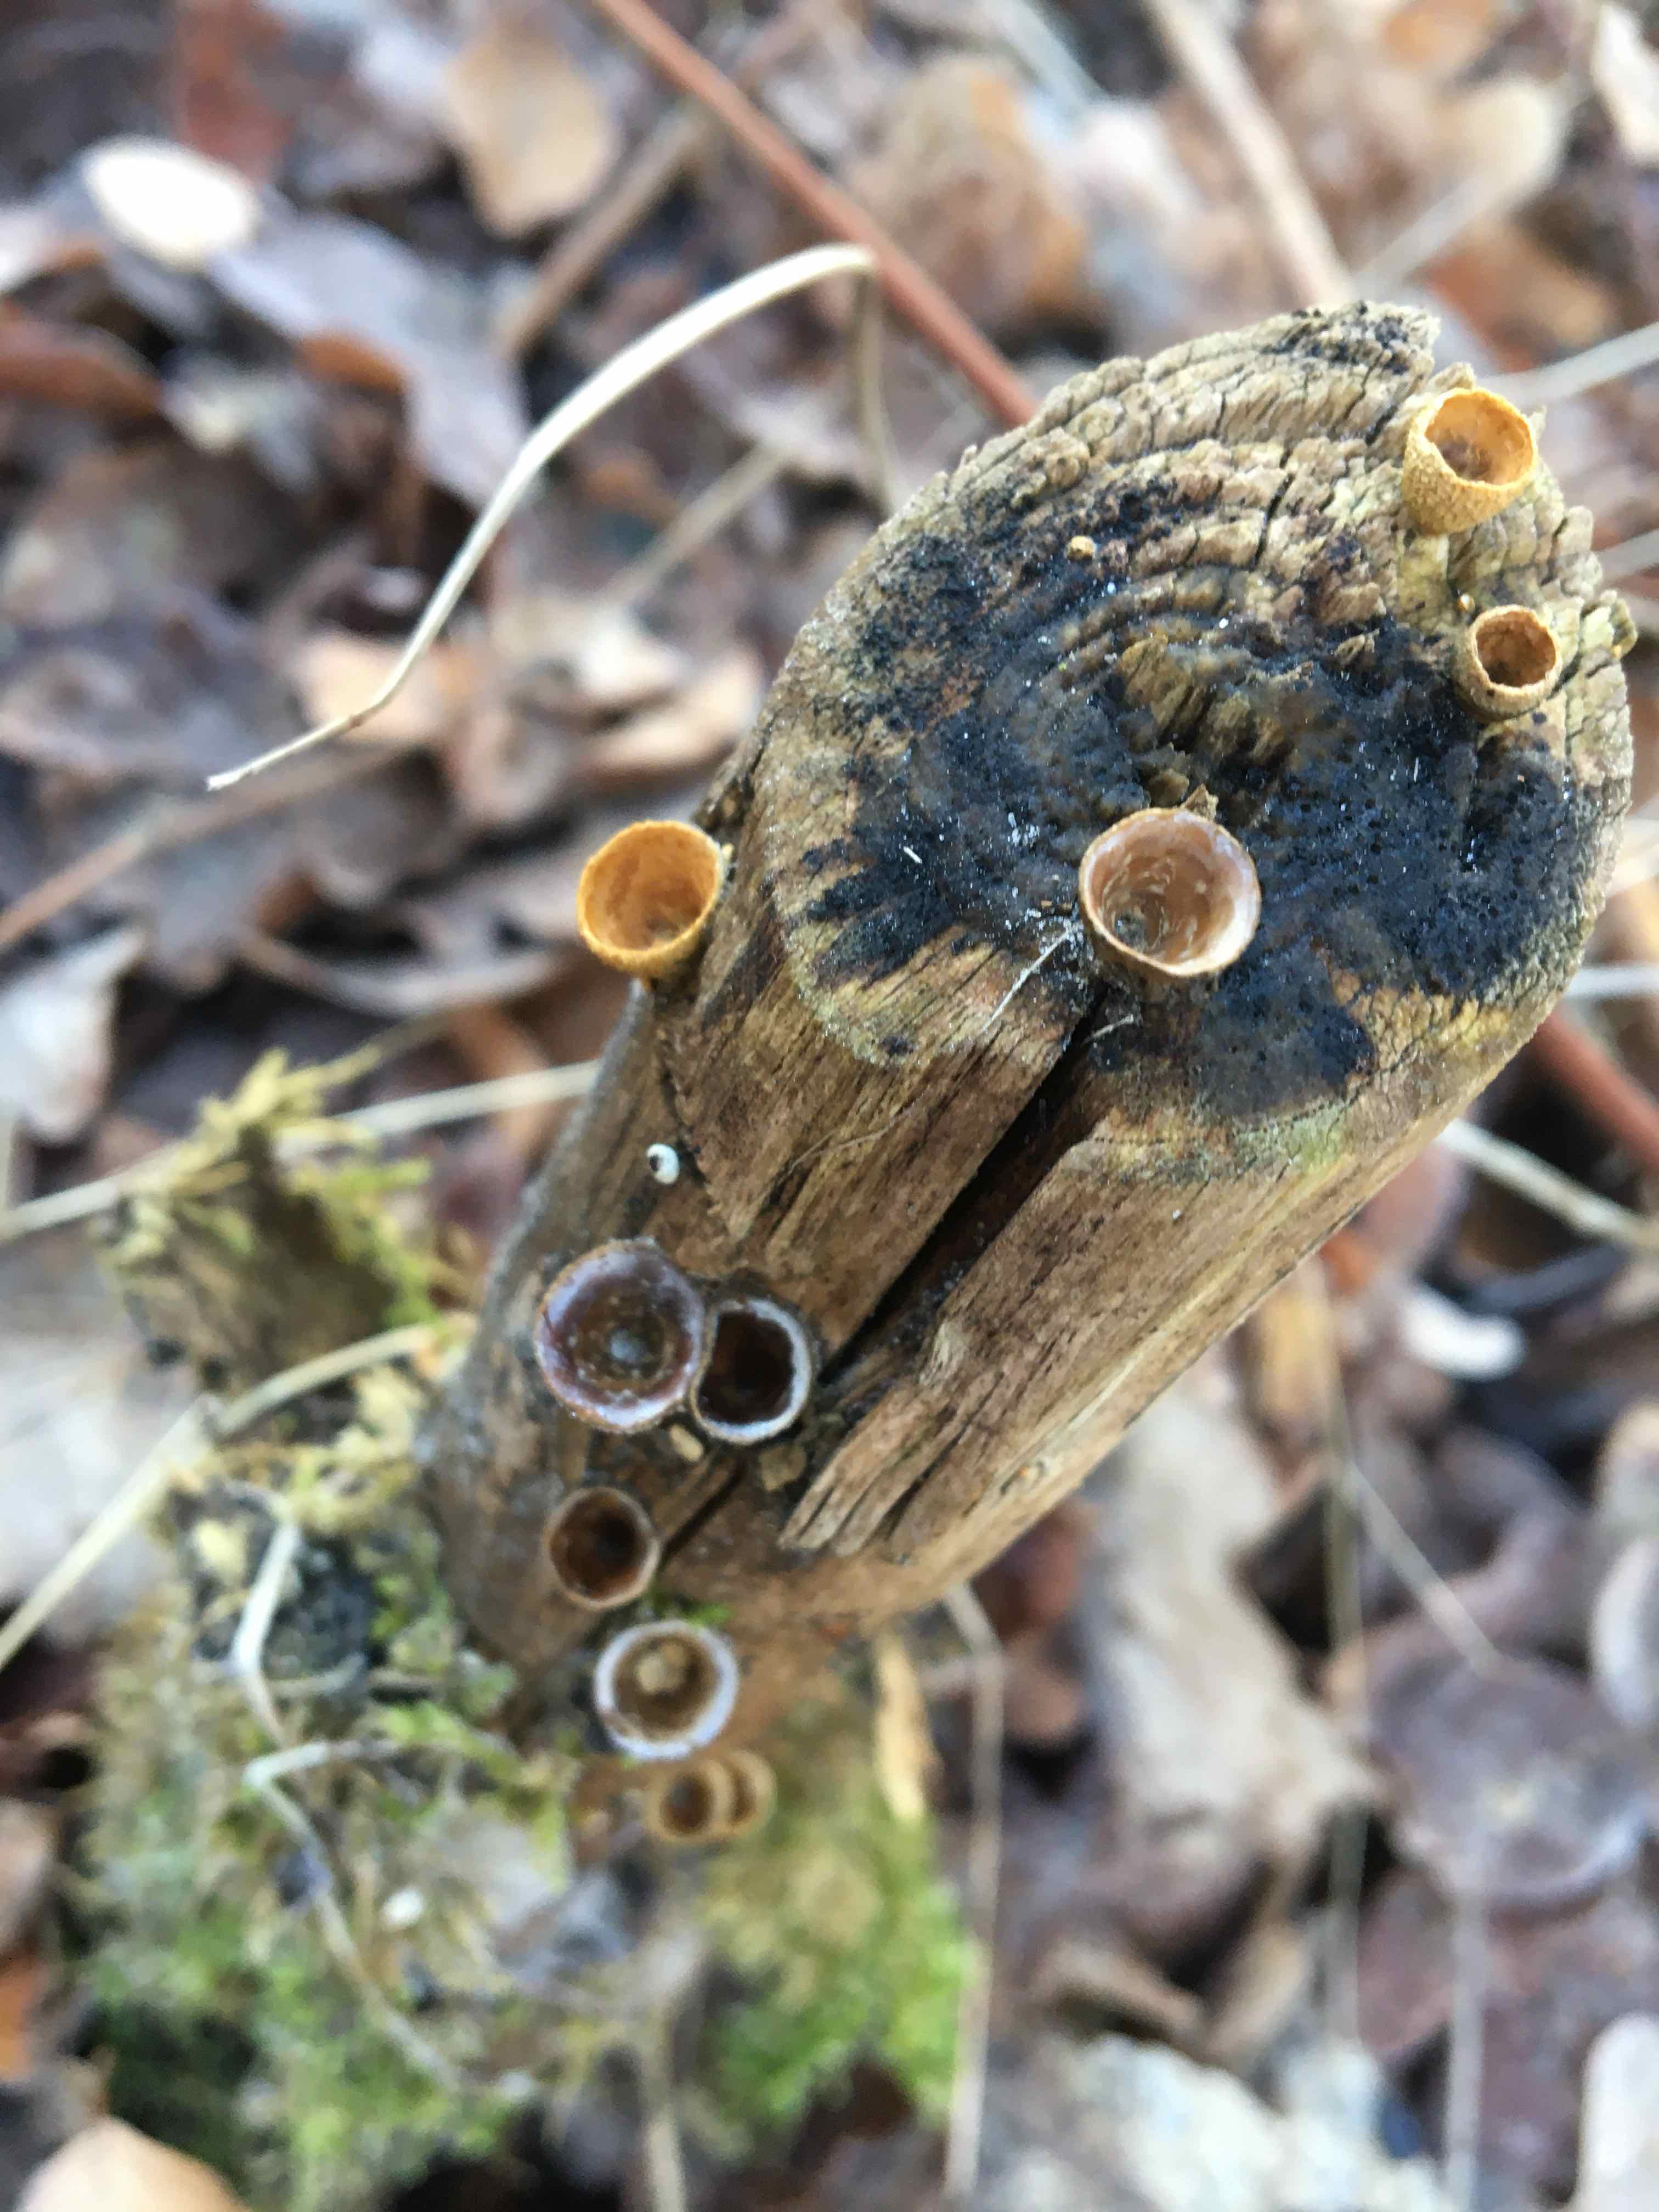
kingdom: Fungi
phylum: Basidiomycota
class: Agaricomycetes
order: Agaricales
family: Nidulariaceae
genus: Crucibulum
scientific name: Crucibulum crucibuliforme
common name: krukkesvamp
